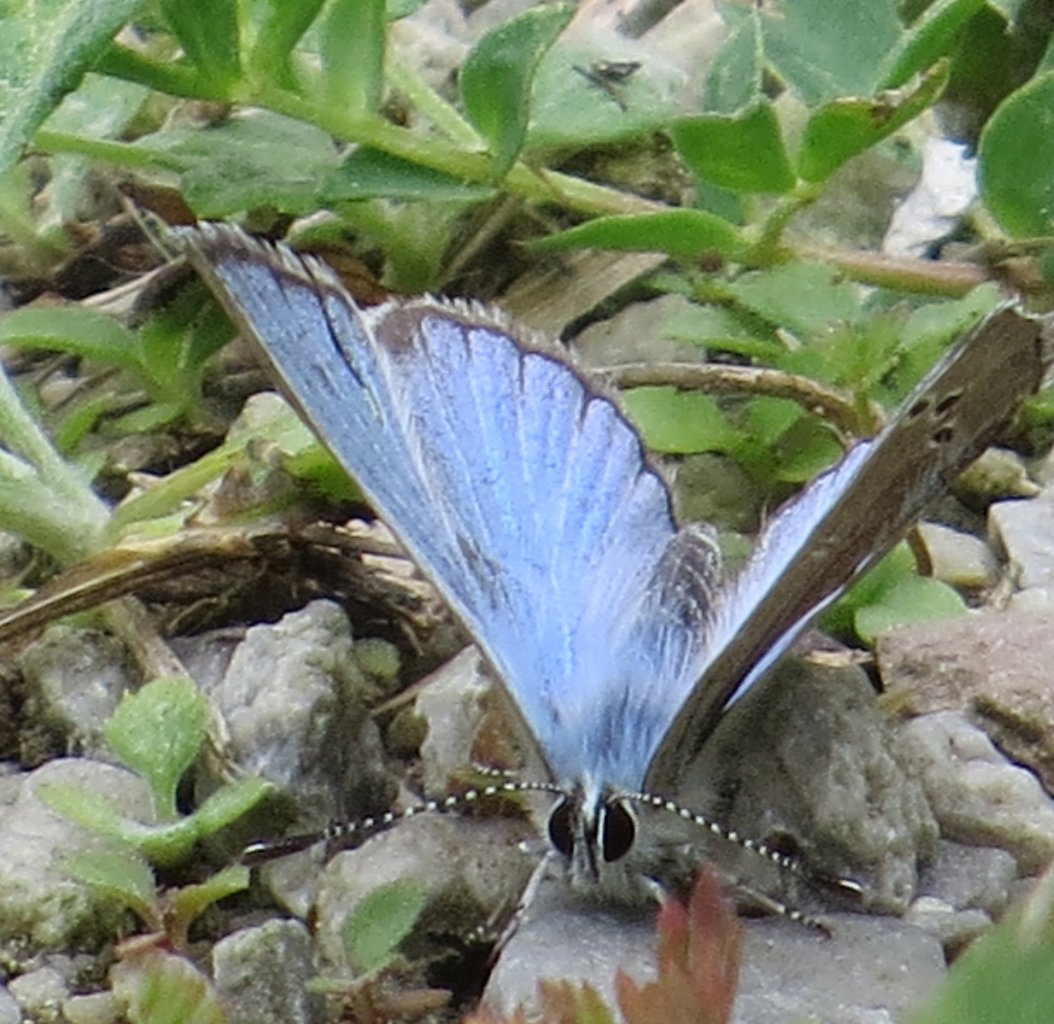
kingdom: Animalia
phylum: Arthropoda
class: Insecta
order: Lepidoptera
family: Lycaenidae
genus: Glaucopsyche
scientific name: Glaucopsyche lygdamus
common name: Silvery Blue
